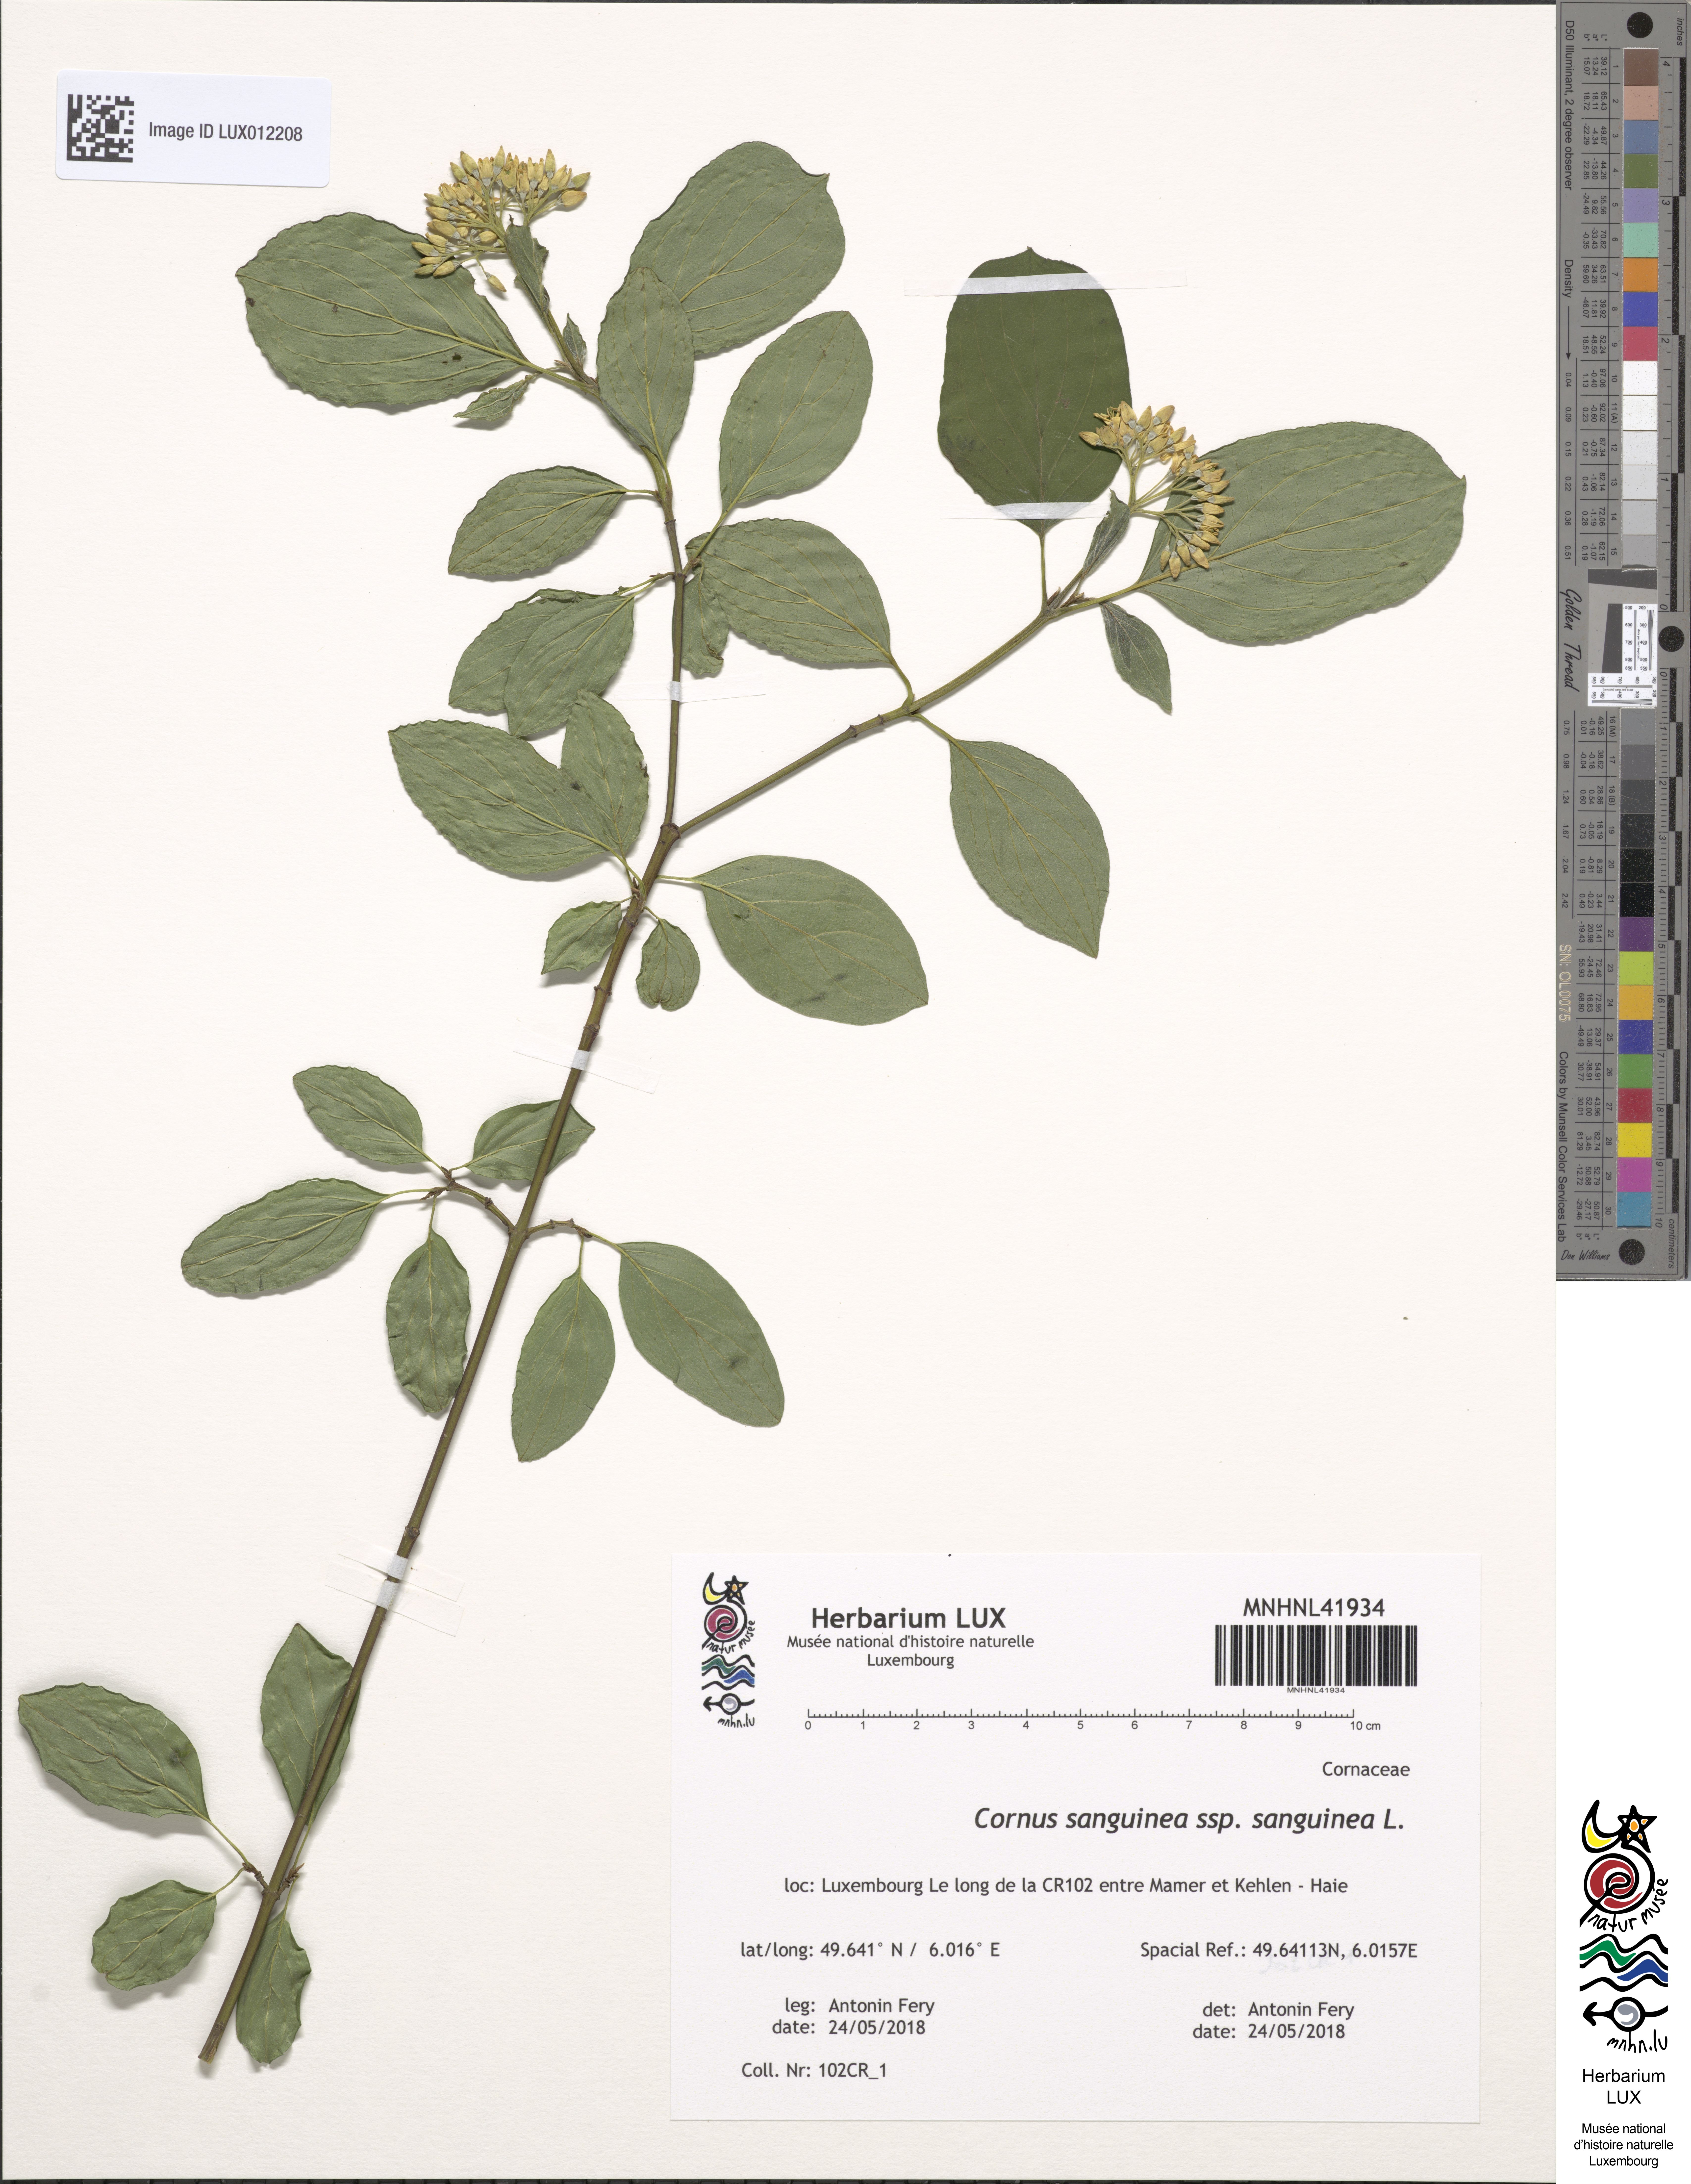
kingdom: Plantae
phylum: Tracheophyta
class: Magnoliopsida
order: Cornales
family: Cornaceae
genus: Cornus
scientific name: Cornus sanguinea
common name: Dogwood
